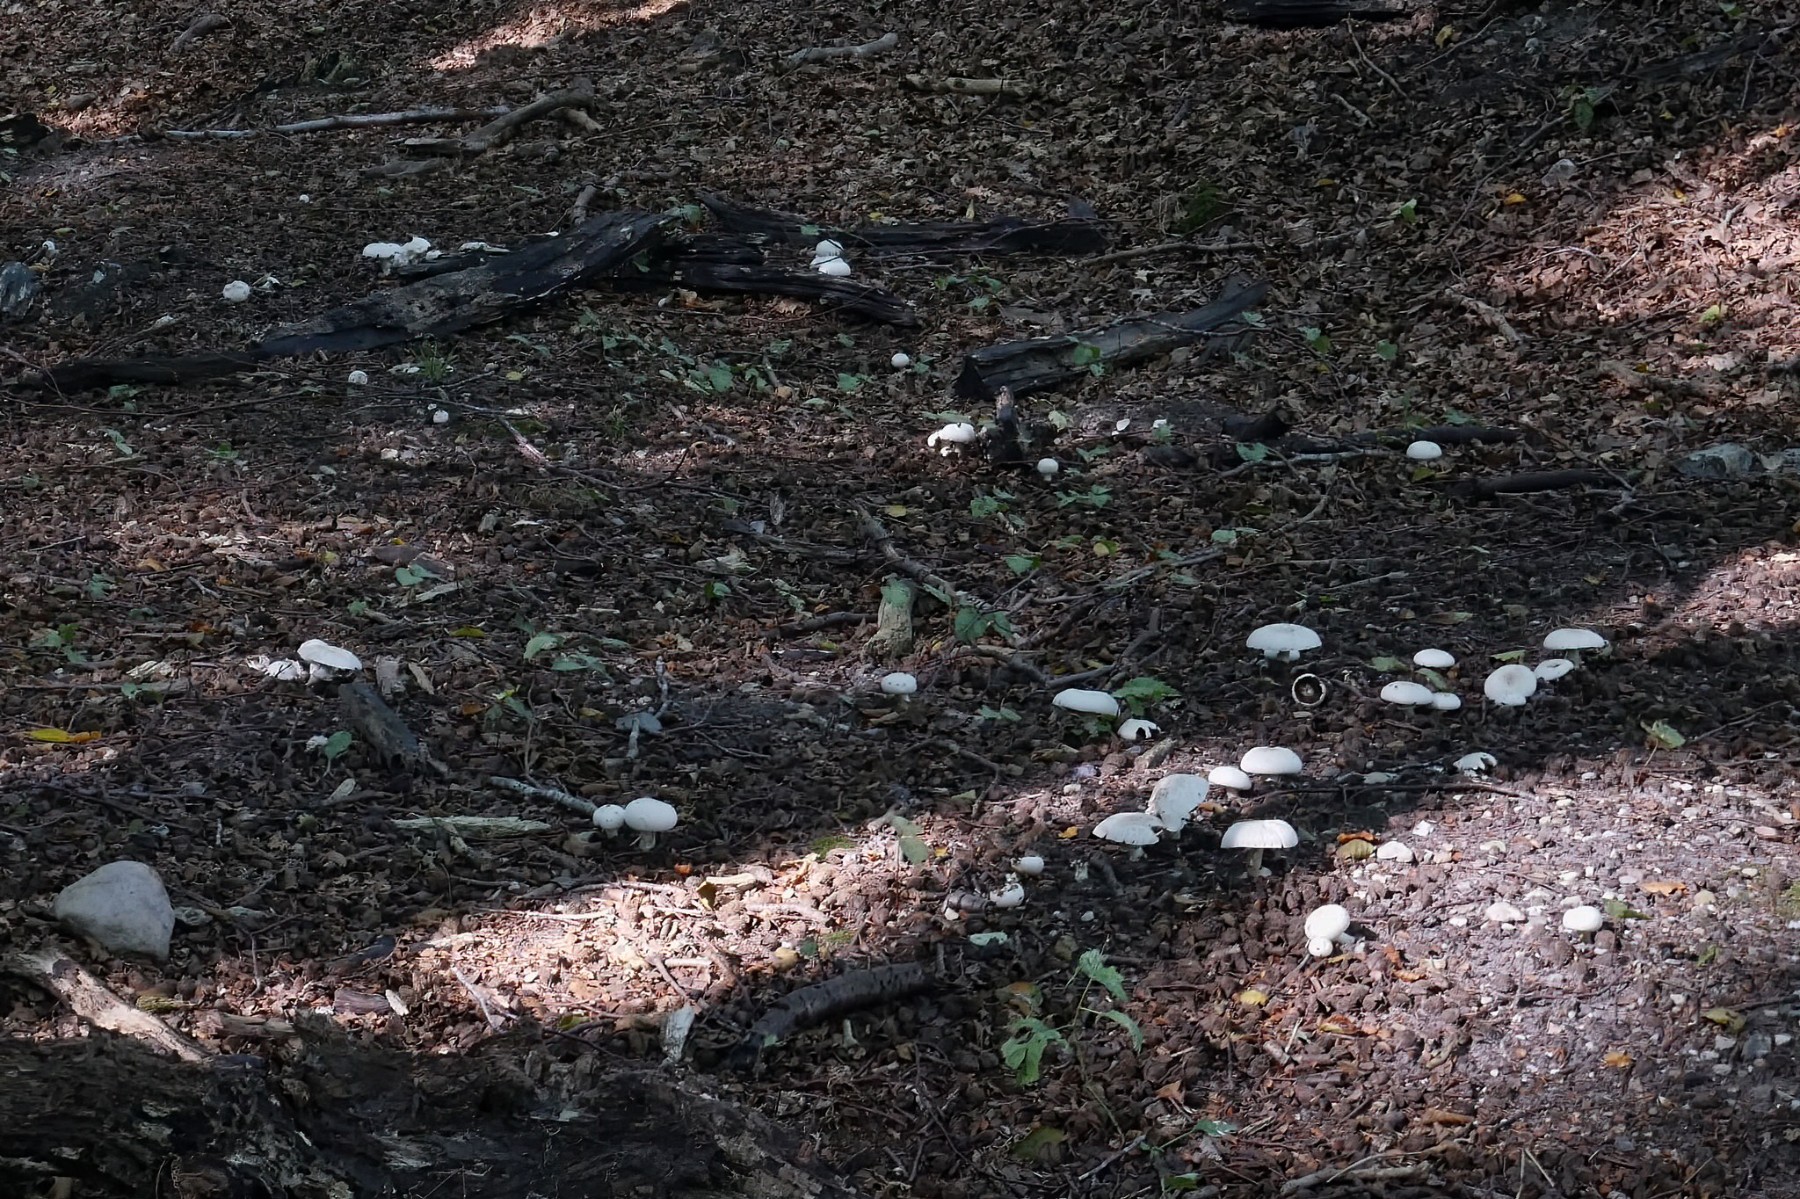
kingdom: Fungi
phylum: Basidiomycota
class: Agaricomycetes
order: Agaricales
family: Agaricaceae
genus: Agaricus
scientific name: Agaricus xanthodermus
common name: karbol-champignon
